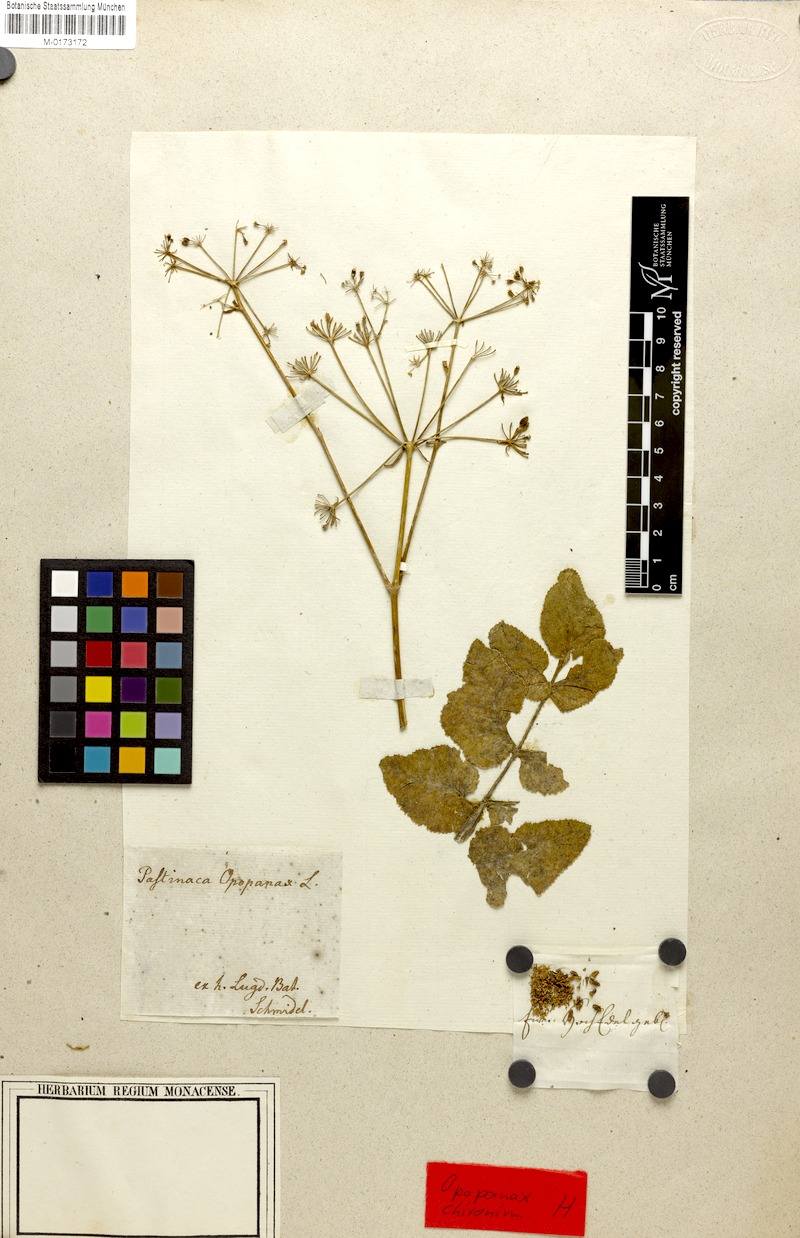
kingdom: Plantae
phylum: Tracheophyta
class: Magnoliopsida
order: Apiales
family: Apiaceae
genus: Opopanax
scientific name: Opopanax chironium
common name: Hercules-all-heal
